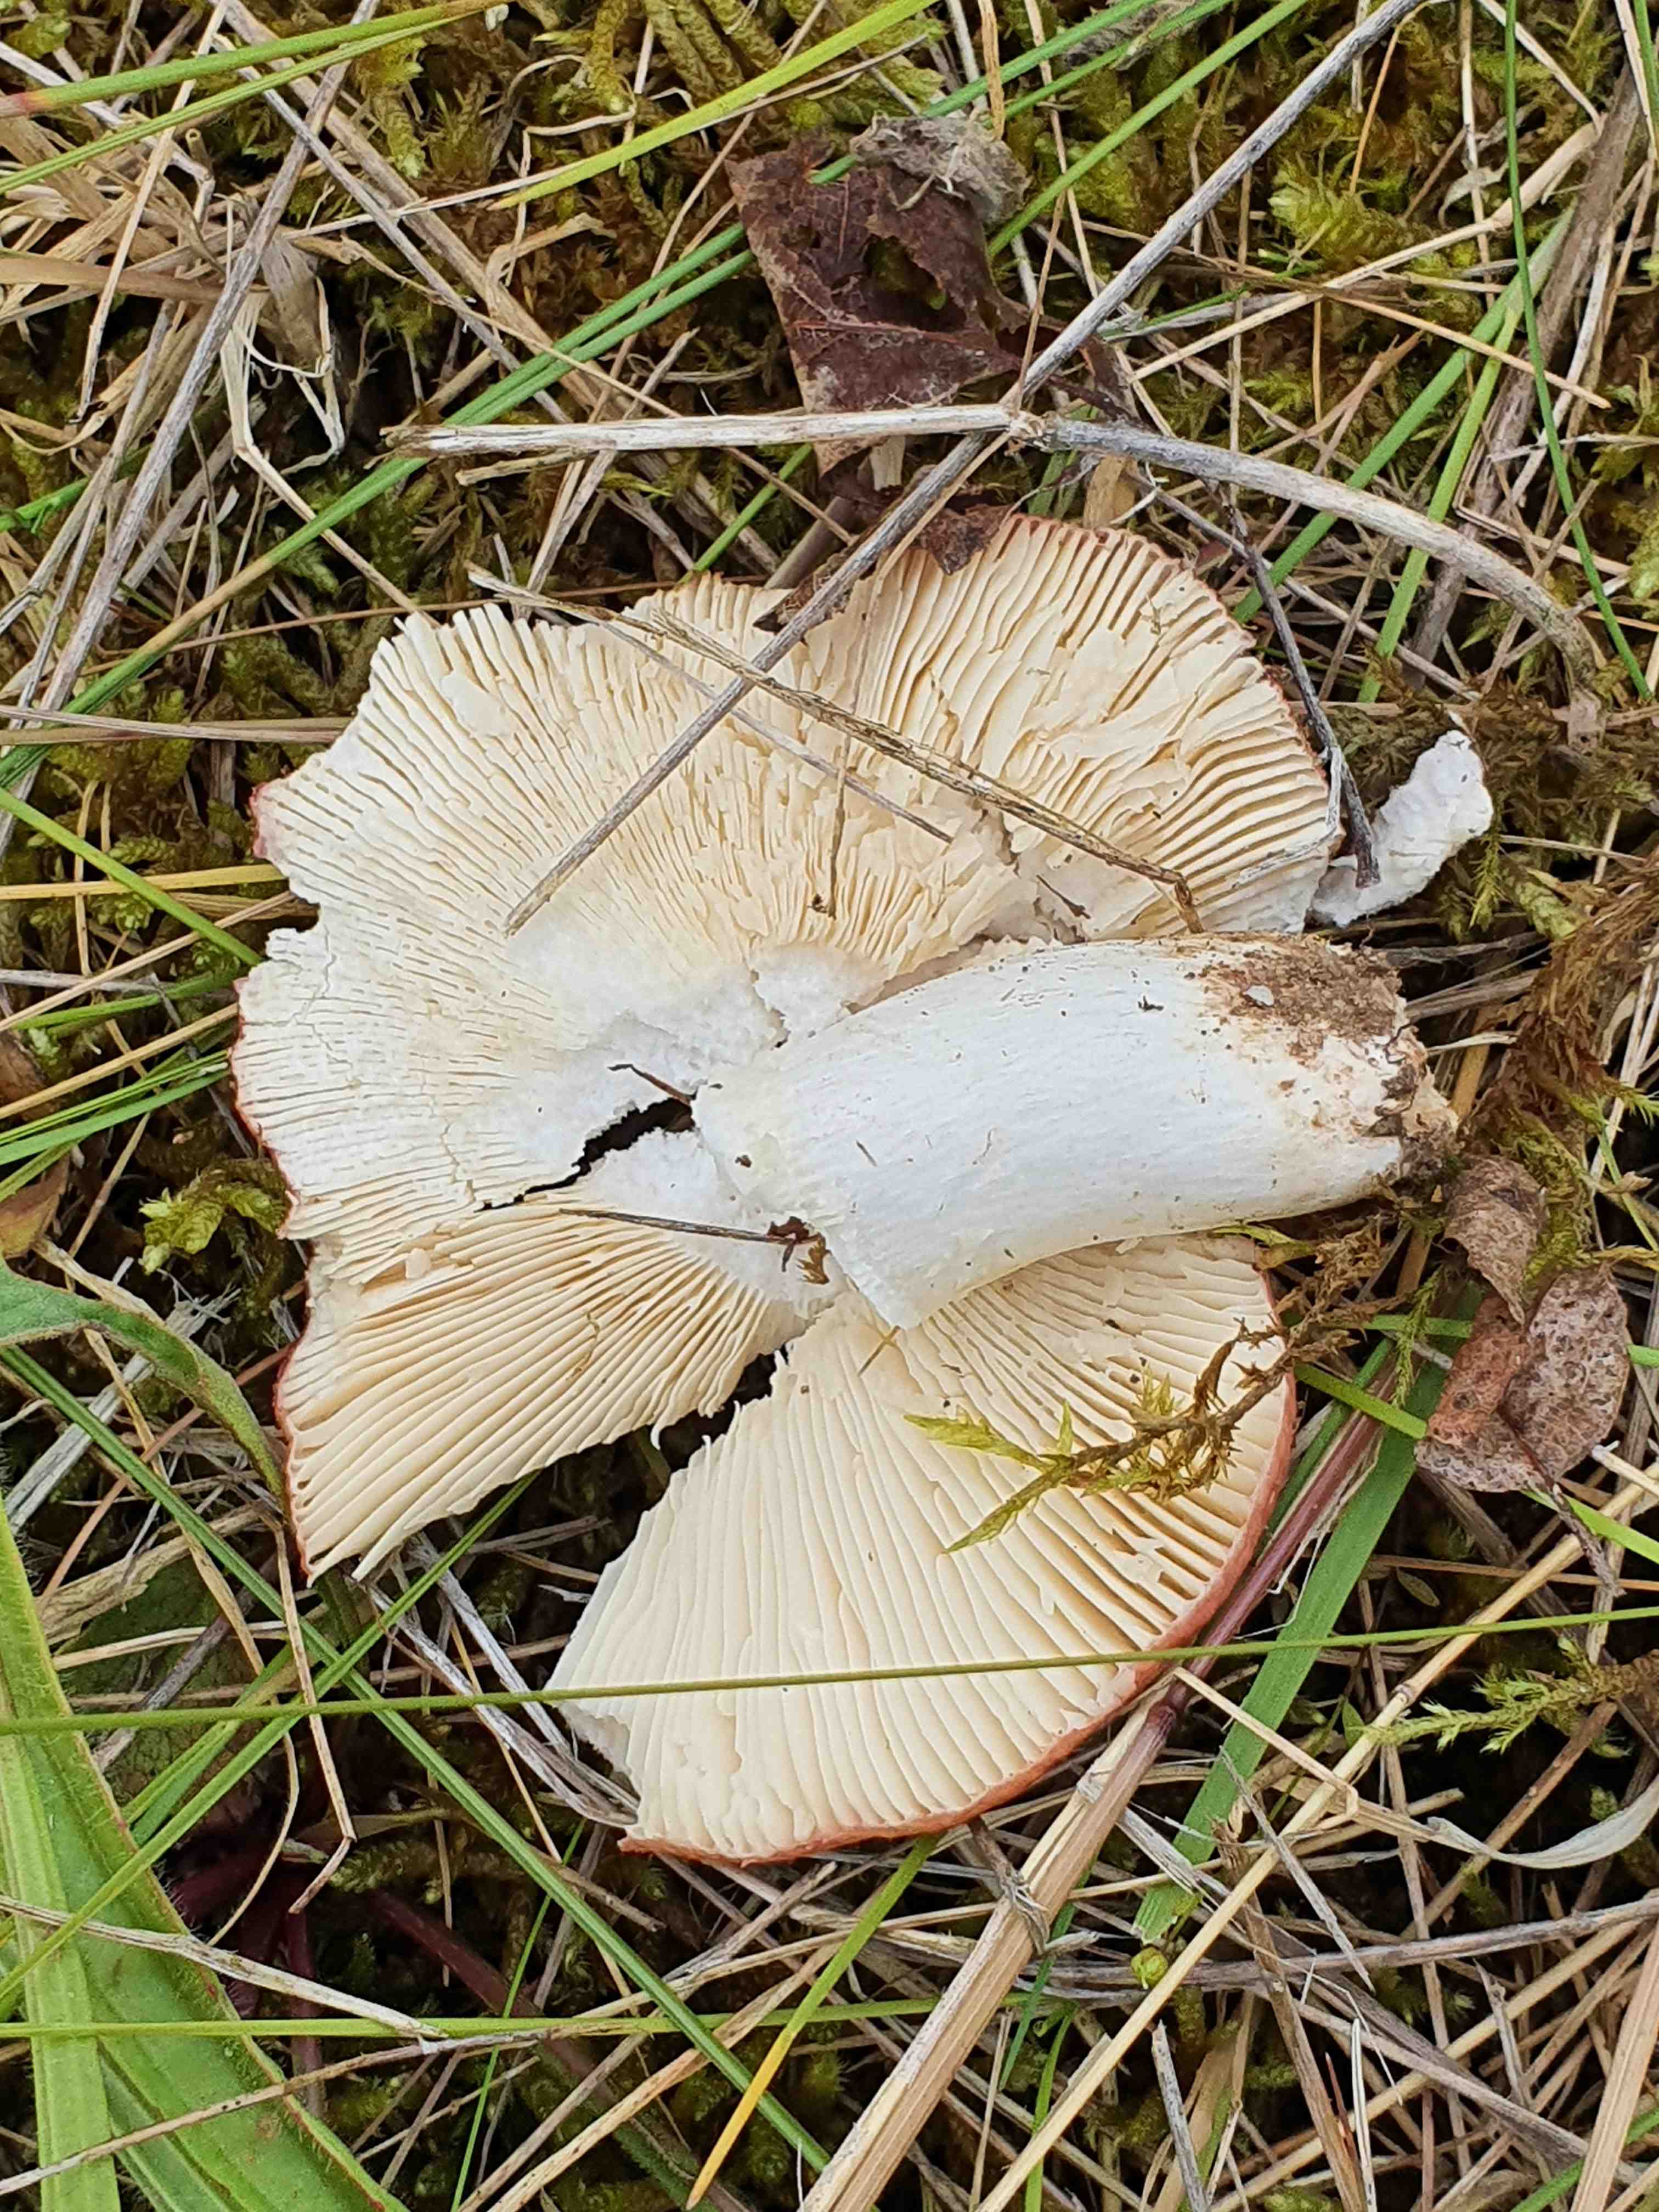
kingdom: Fungi
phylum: Basidiomycota
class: Agaricomycetes
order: Russulales
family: Russulaceae
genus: Russula
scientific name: Russula depallens
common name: falmende skørhat
